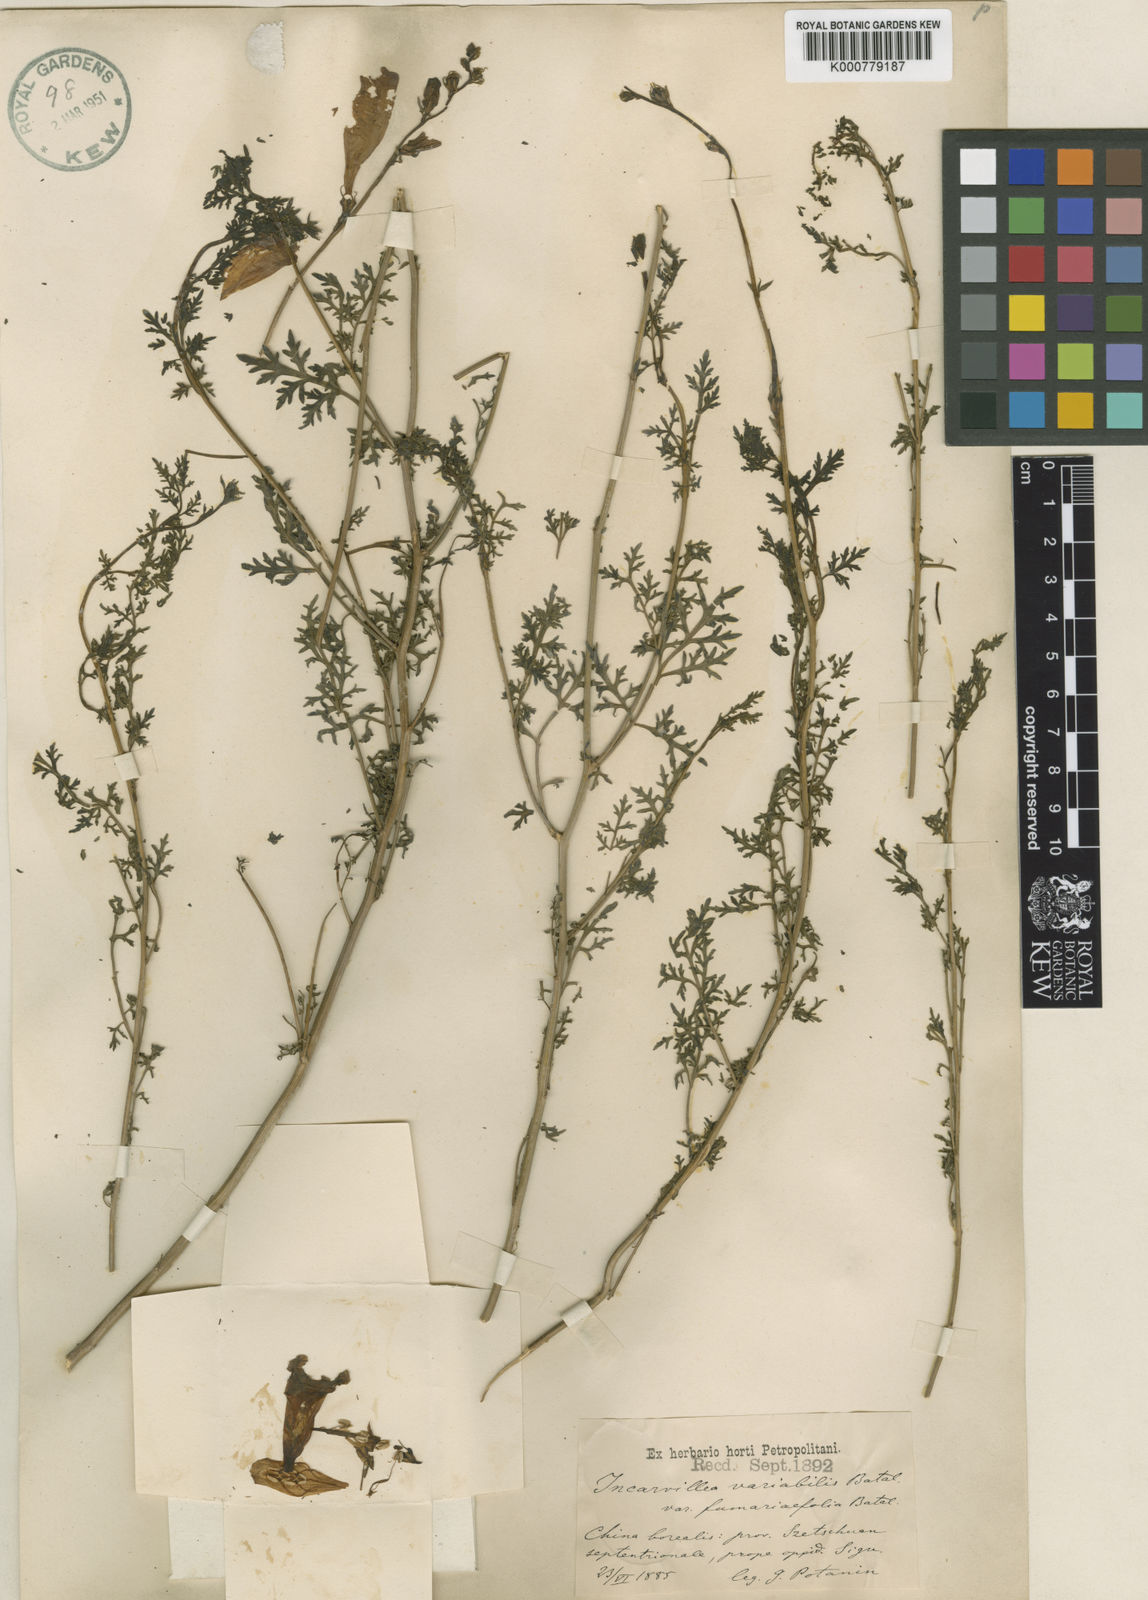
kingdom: Plantae
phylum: Tracheophyta
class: Magnoliopsida
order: Lamiales
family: Bignoniaceae
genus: Incarvillea
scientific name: Incarvillea sinensis
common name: Trumpet-flower
